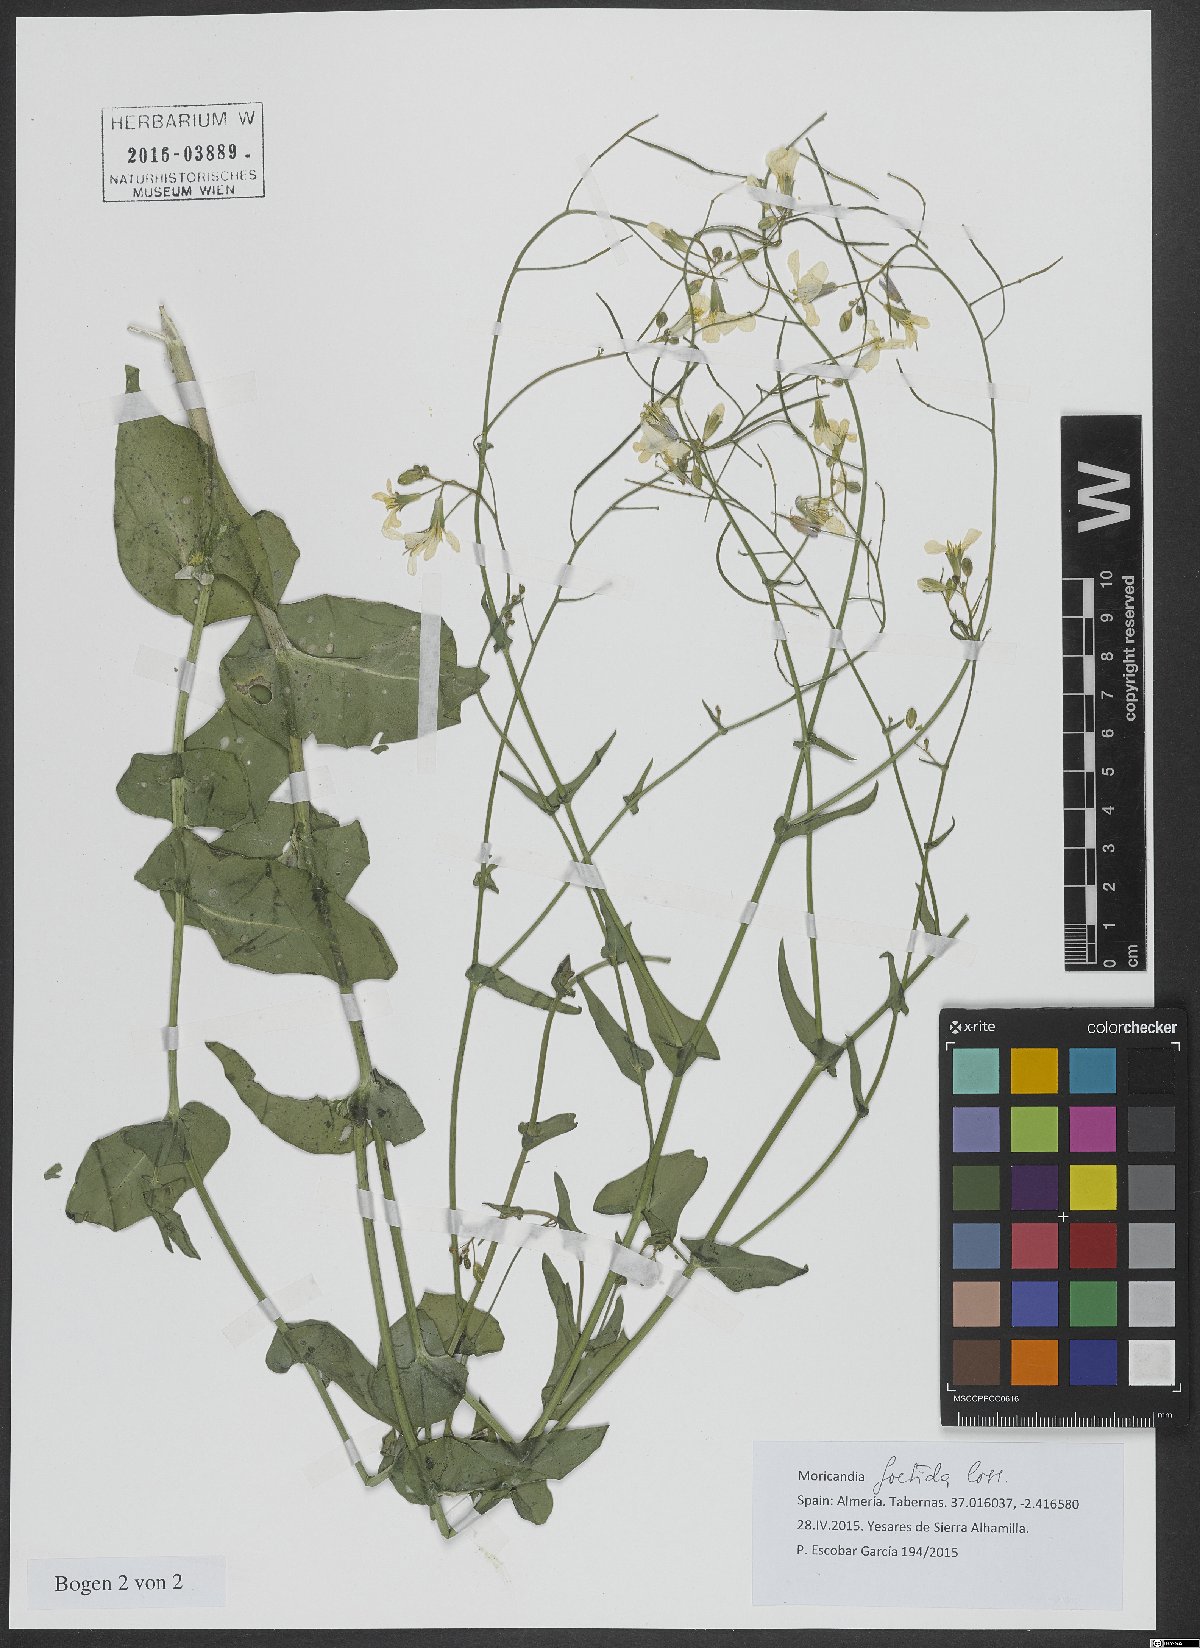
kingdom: Plantae
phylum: Tracheophyta
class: Magnoliopsida
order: Brassicales
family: Brassicaceae
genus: Moricandia
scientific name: Moricandia foetida
